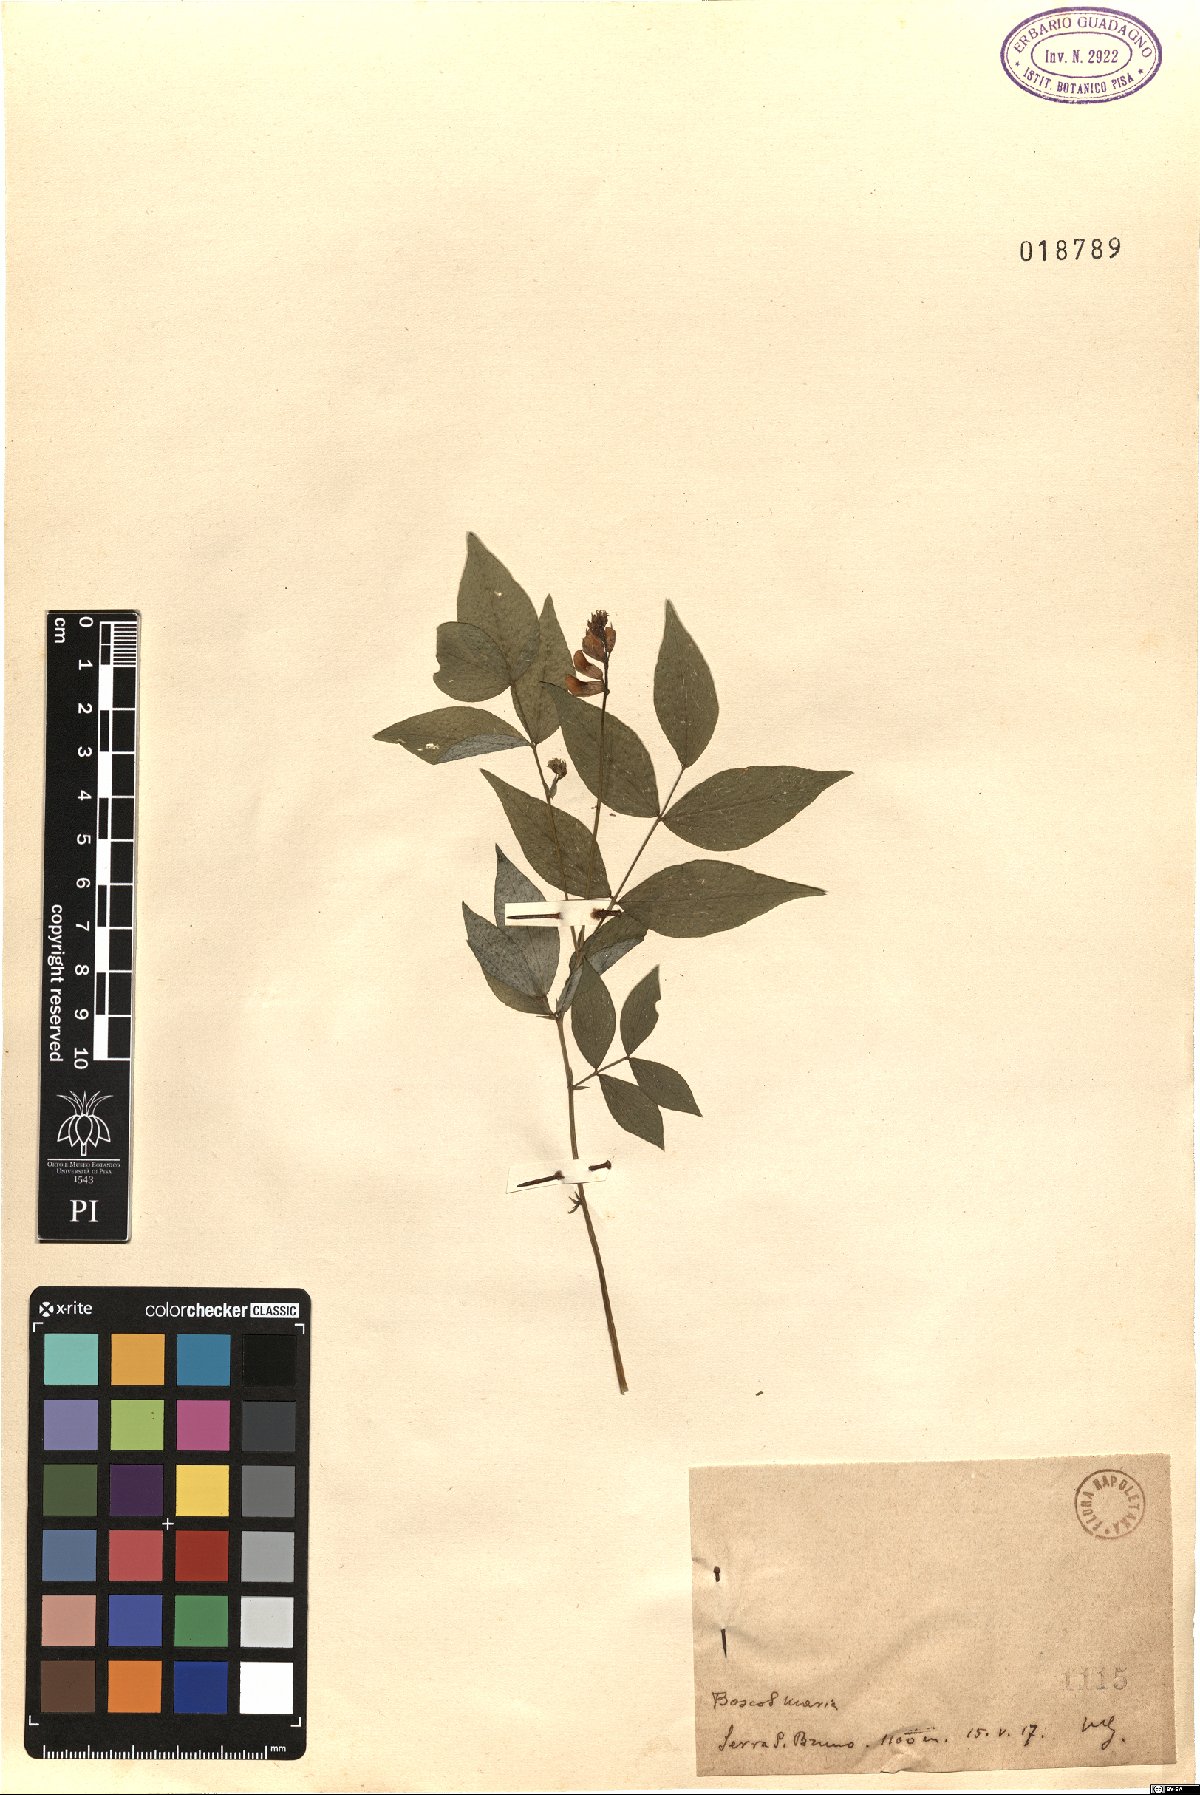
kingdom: Plantae
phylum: Tracheophyta
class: Magnoliopsida
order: Fabales
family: Fabaceae
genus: Lathyrus
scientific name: Lathyrus
